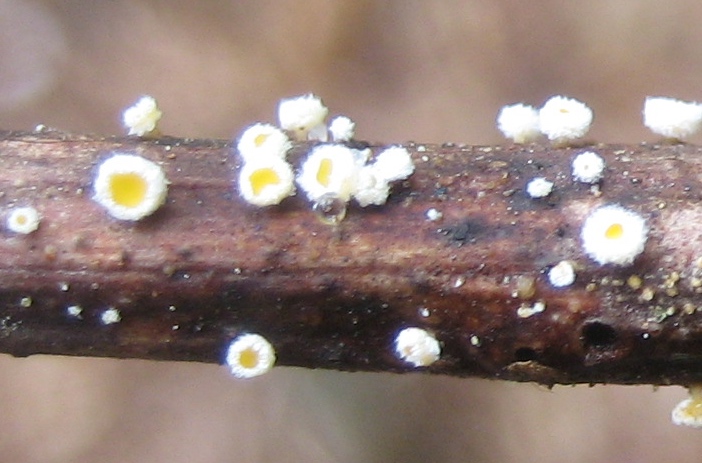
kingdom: Fungi
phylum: Ascomycota
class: Leotiomycetes
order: Helotiales
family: Lachnaceae
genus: Capitotricha
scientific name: Capitotricha bicolor
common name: prægtig frynseskive
